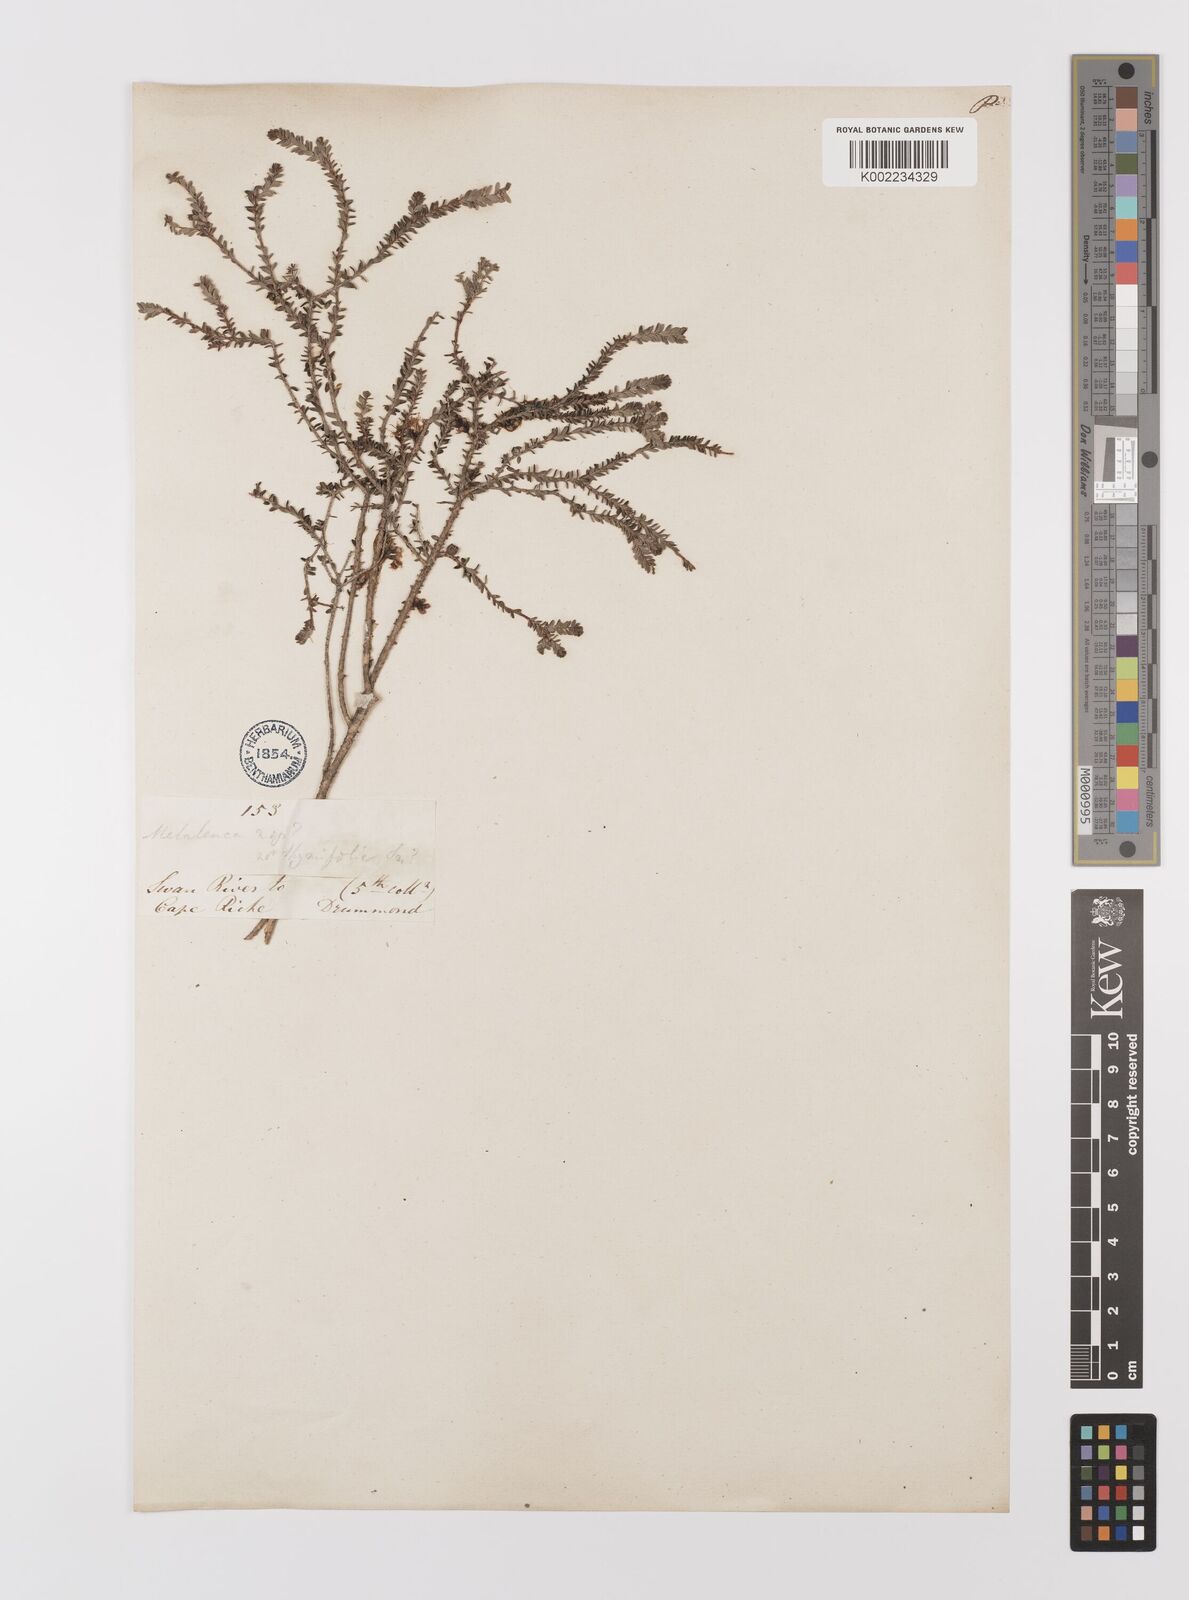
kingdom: Plantae
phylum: Tracheophyta
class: Magnoliopsida
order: Myrtales
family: Myrtaceae
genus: Melaleuca
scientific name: Melaleuca depauperata
